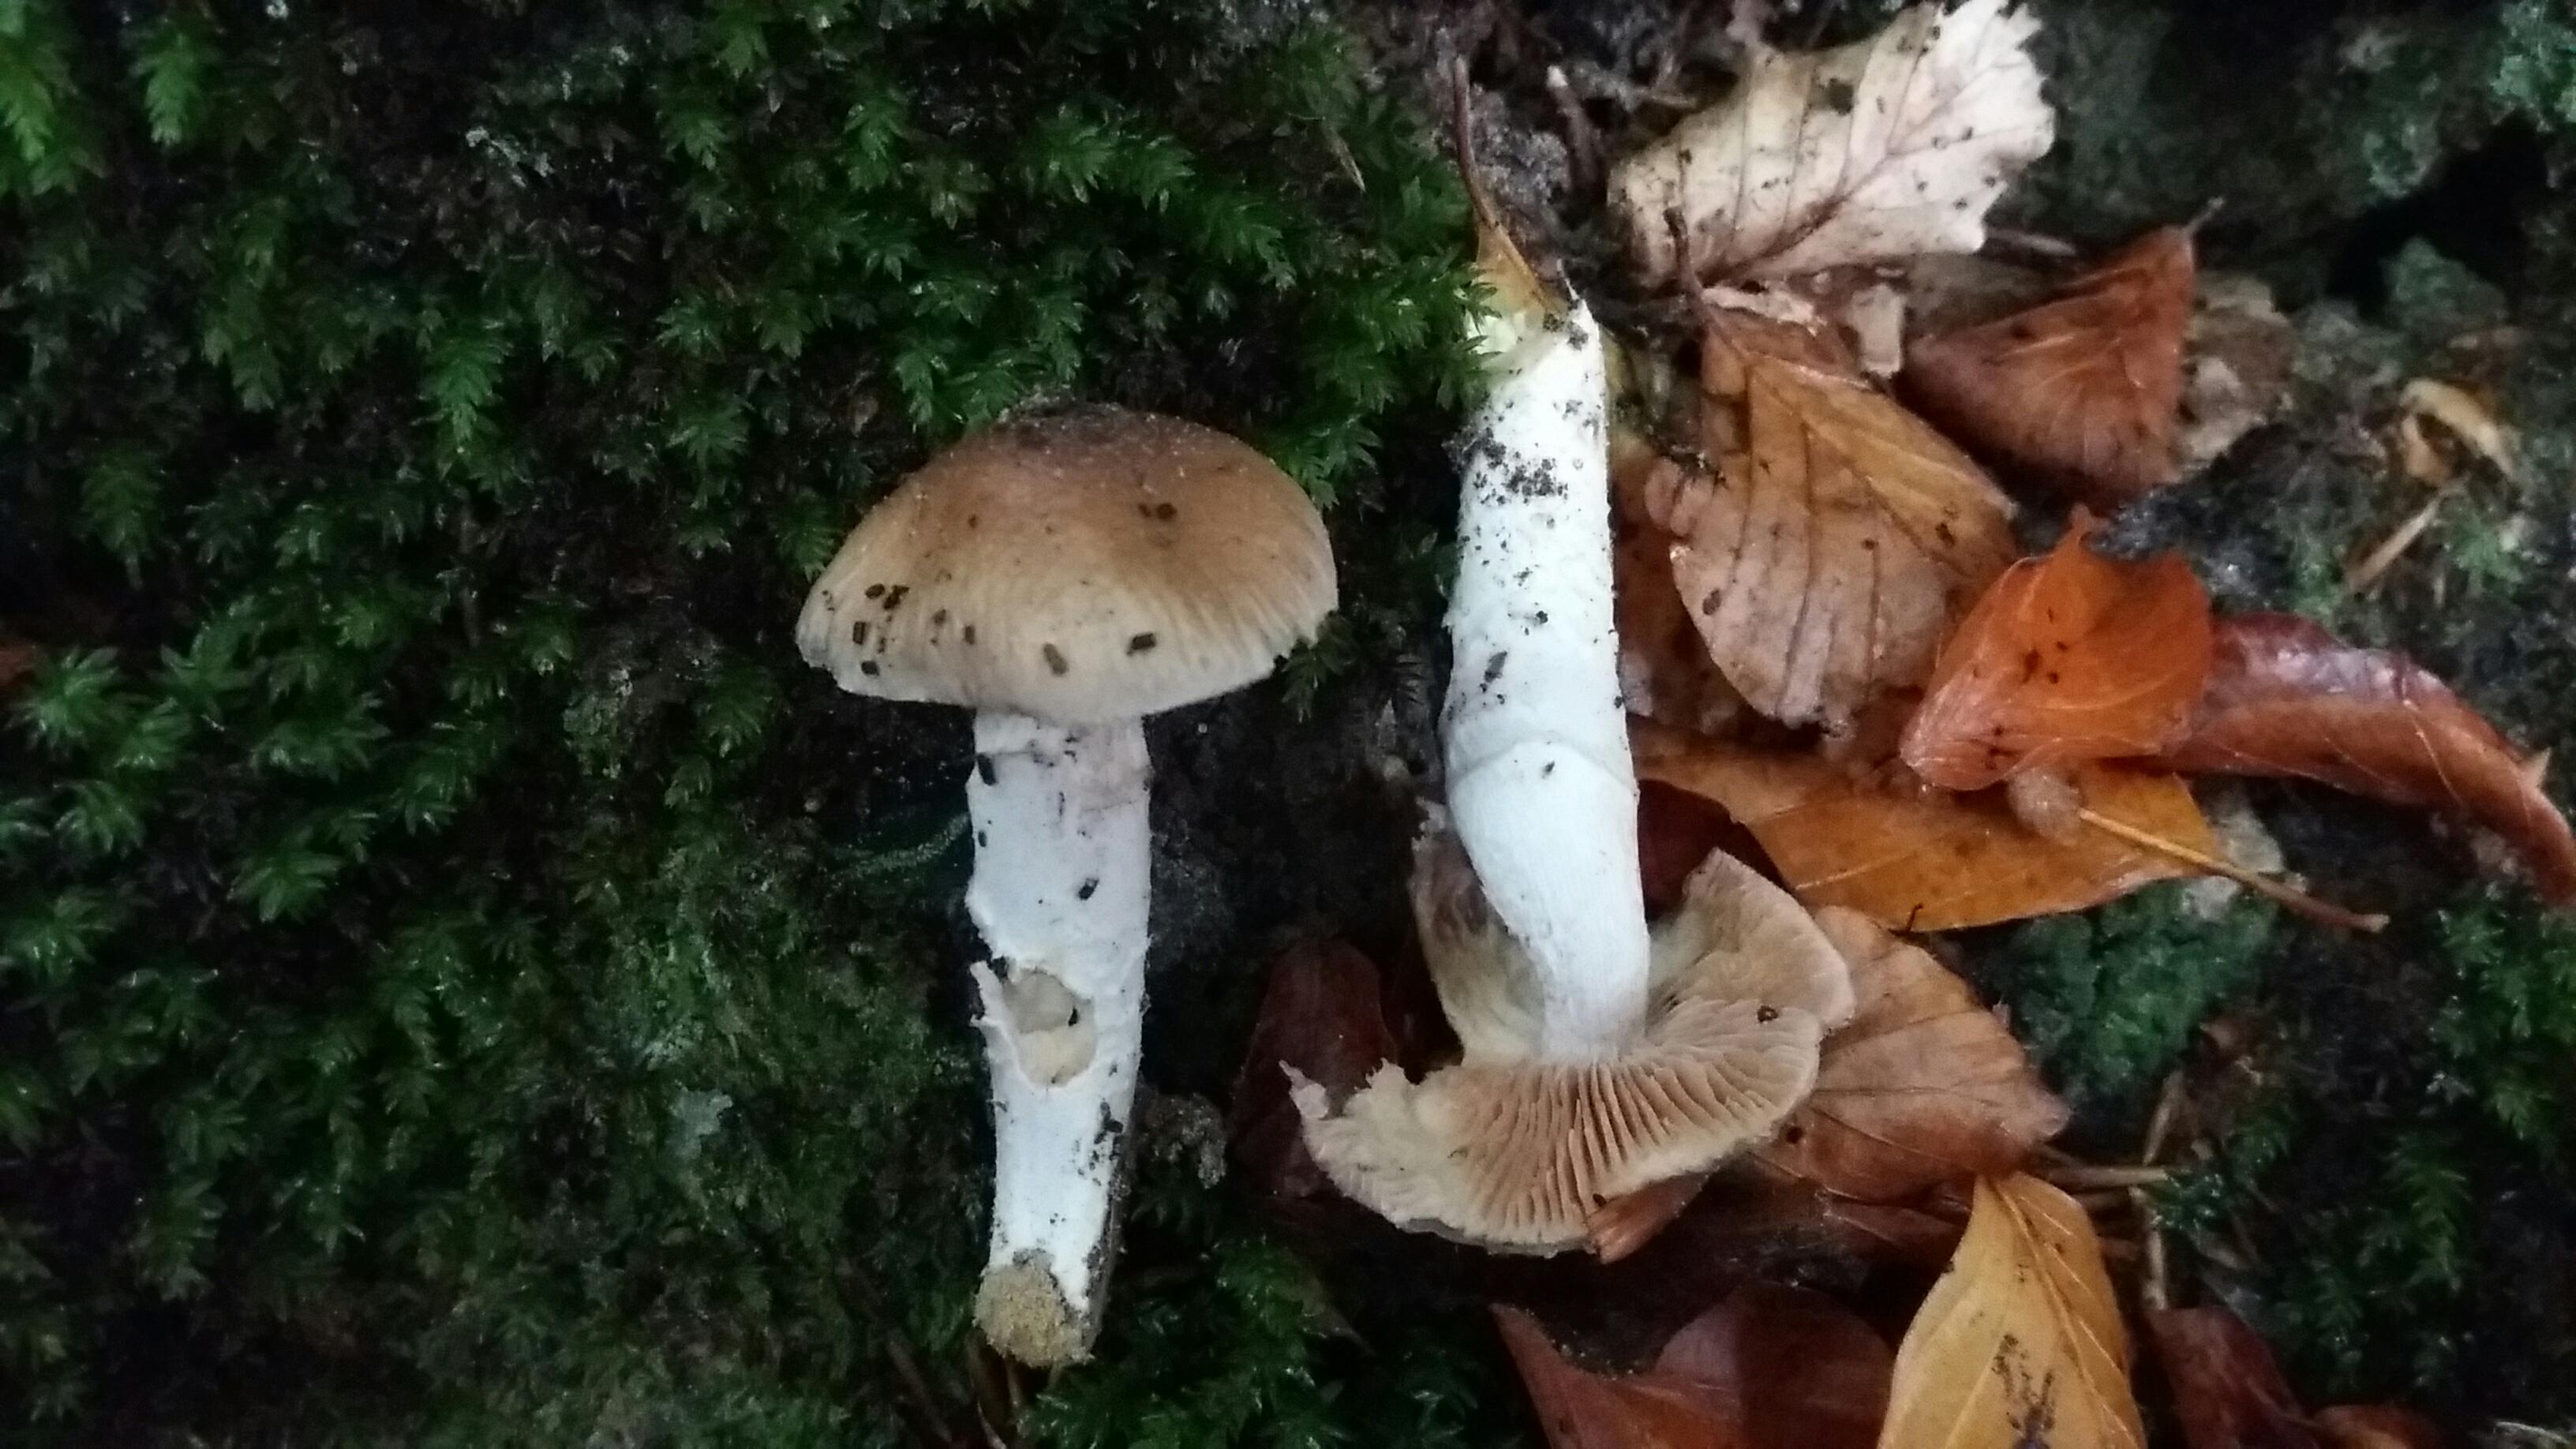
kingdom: Fungi
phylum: Basidiomycota
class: Agaricomycetes
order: Agaricales
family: Cortinariaceae
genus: Cortinarius
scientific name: Cortinarius elatior
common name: høj slørhat
